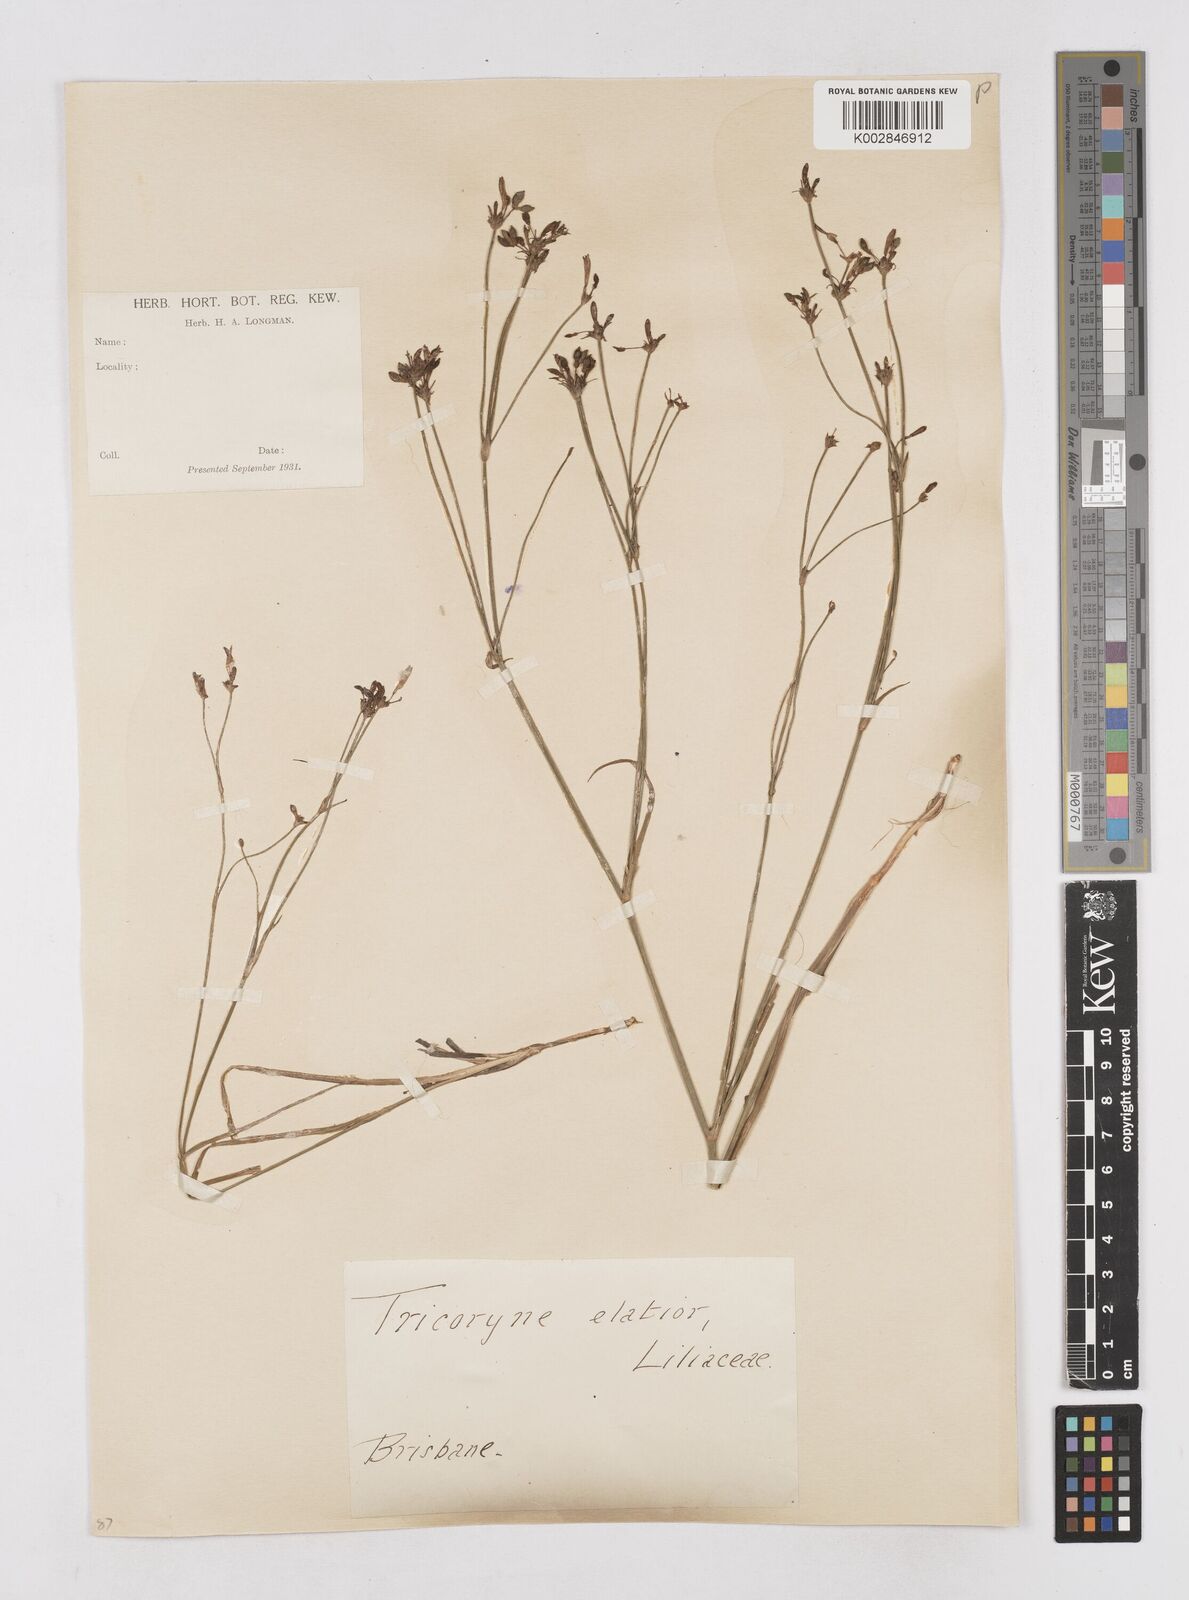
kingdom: Plantae
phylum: Tracheophyta
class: Liliopsida
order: Asparagales
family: Asphodelaceae
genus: Tricoryne
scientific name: Tricoryne elatior
